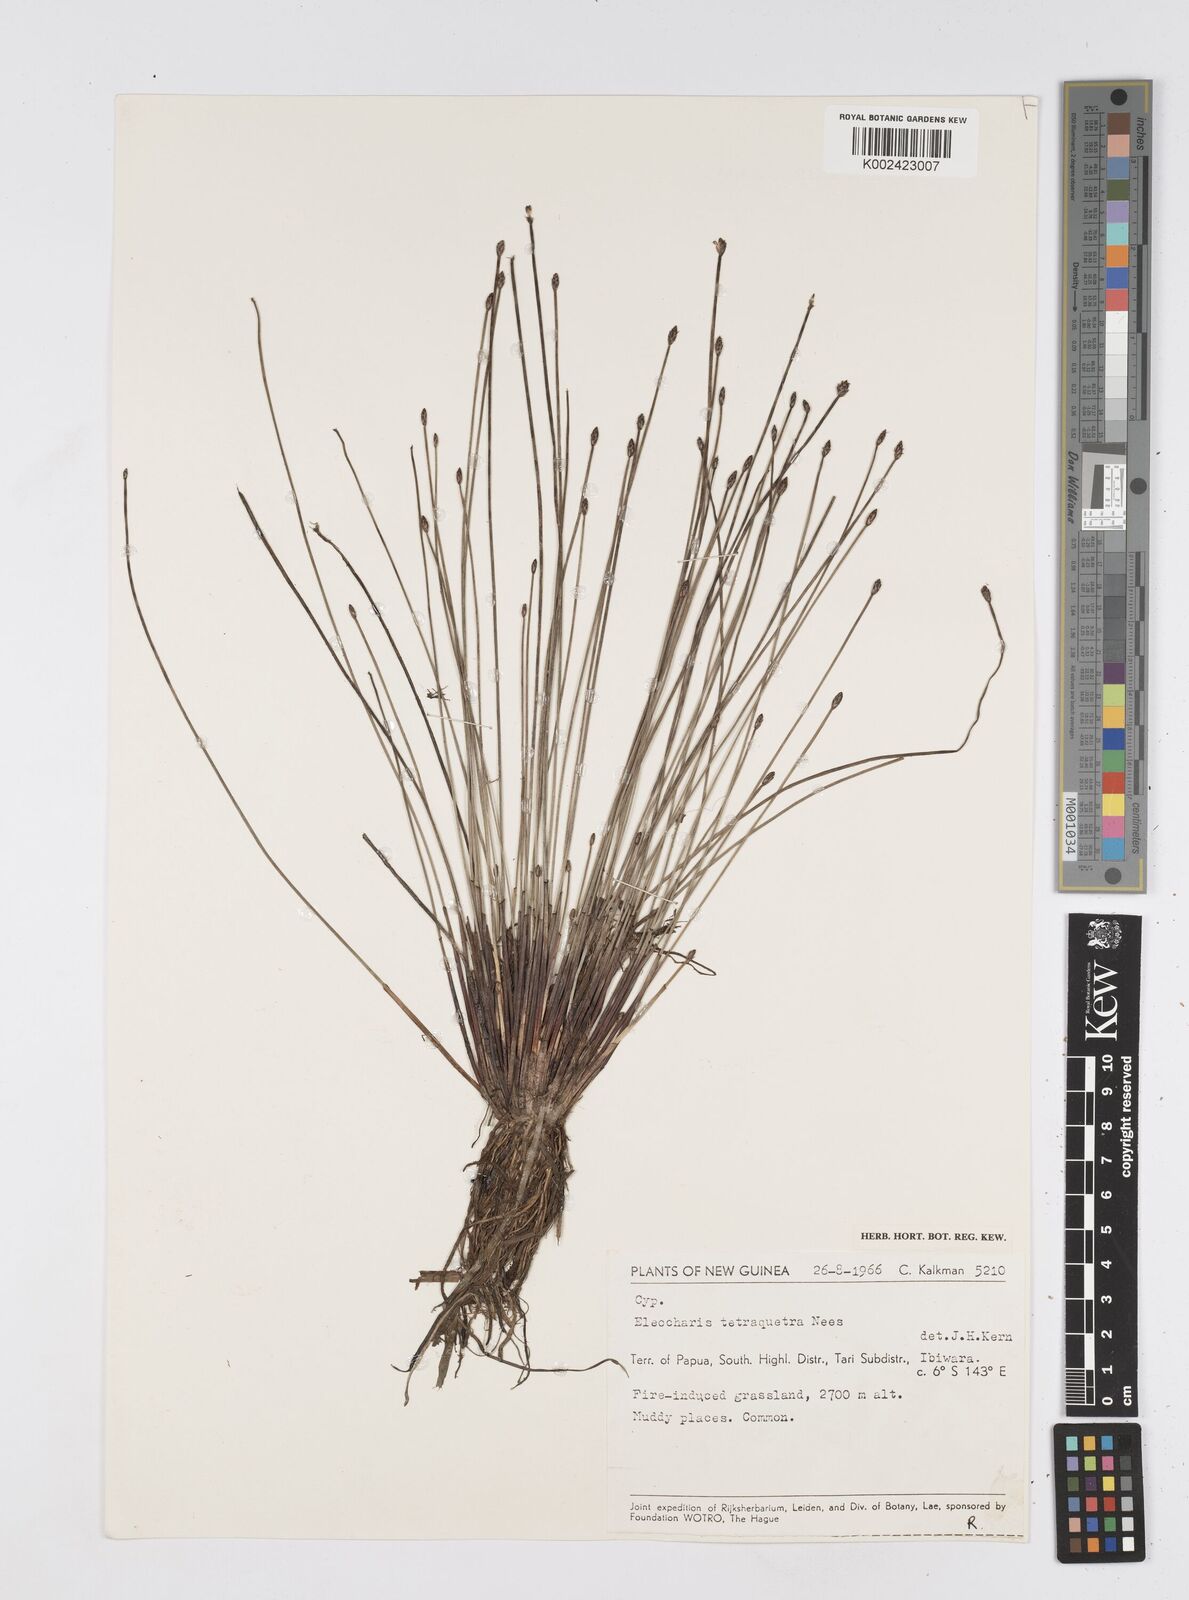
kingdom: Plantae
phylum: Tracheophyta
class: Liliopsida
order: Poales
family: Cyperaceae
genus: Eleocharis
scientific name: Eleocharis tetraquetra
